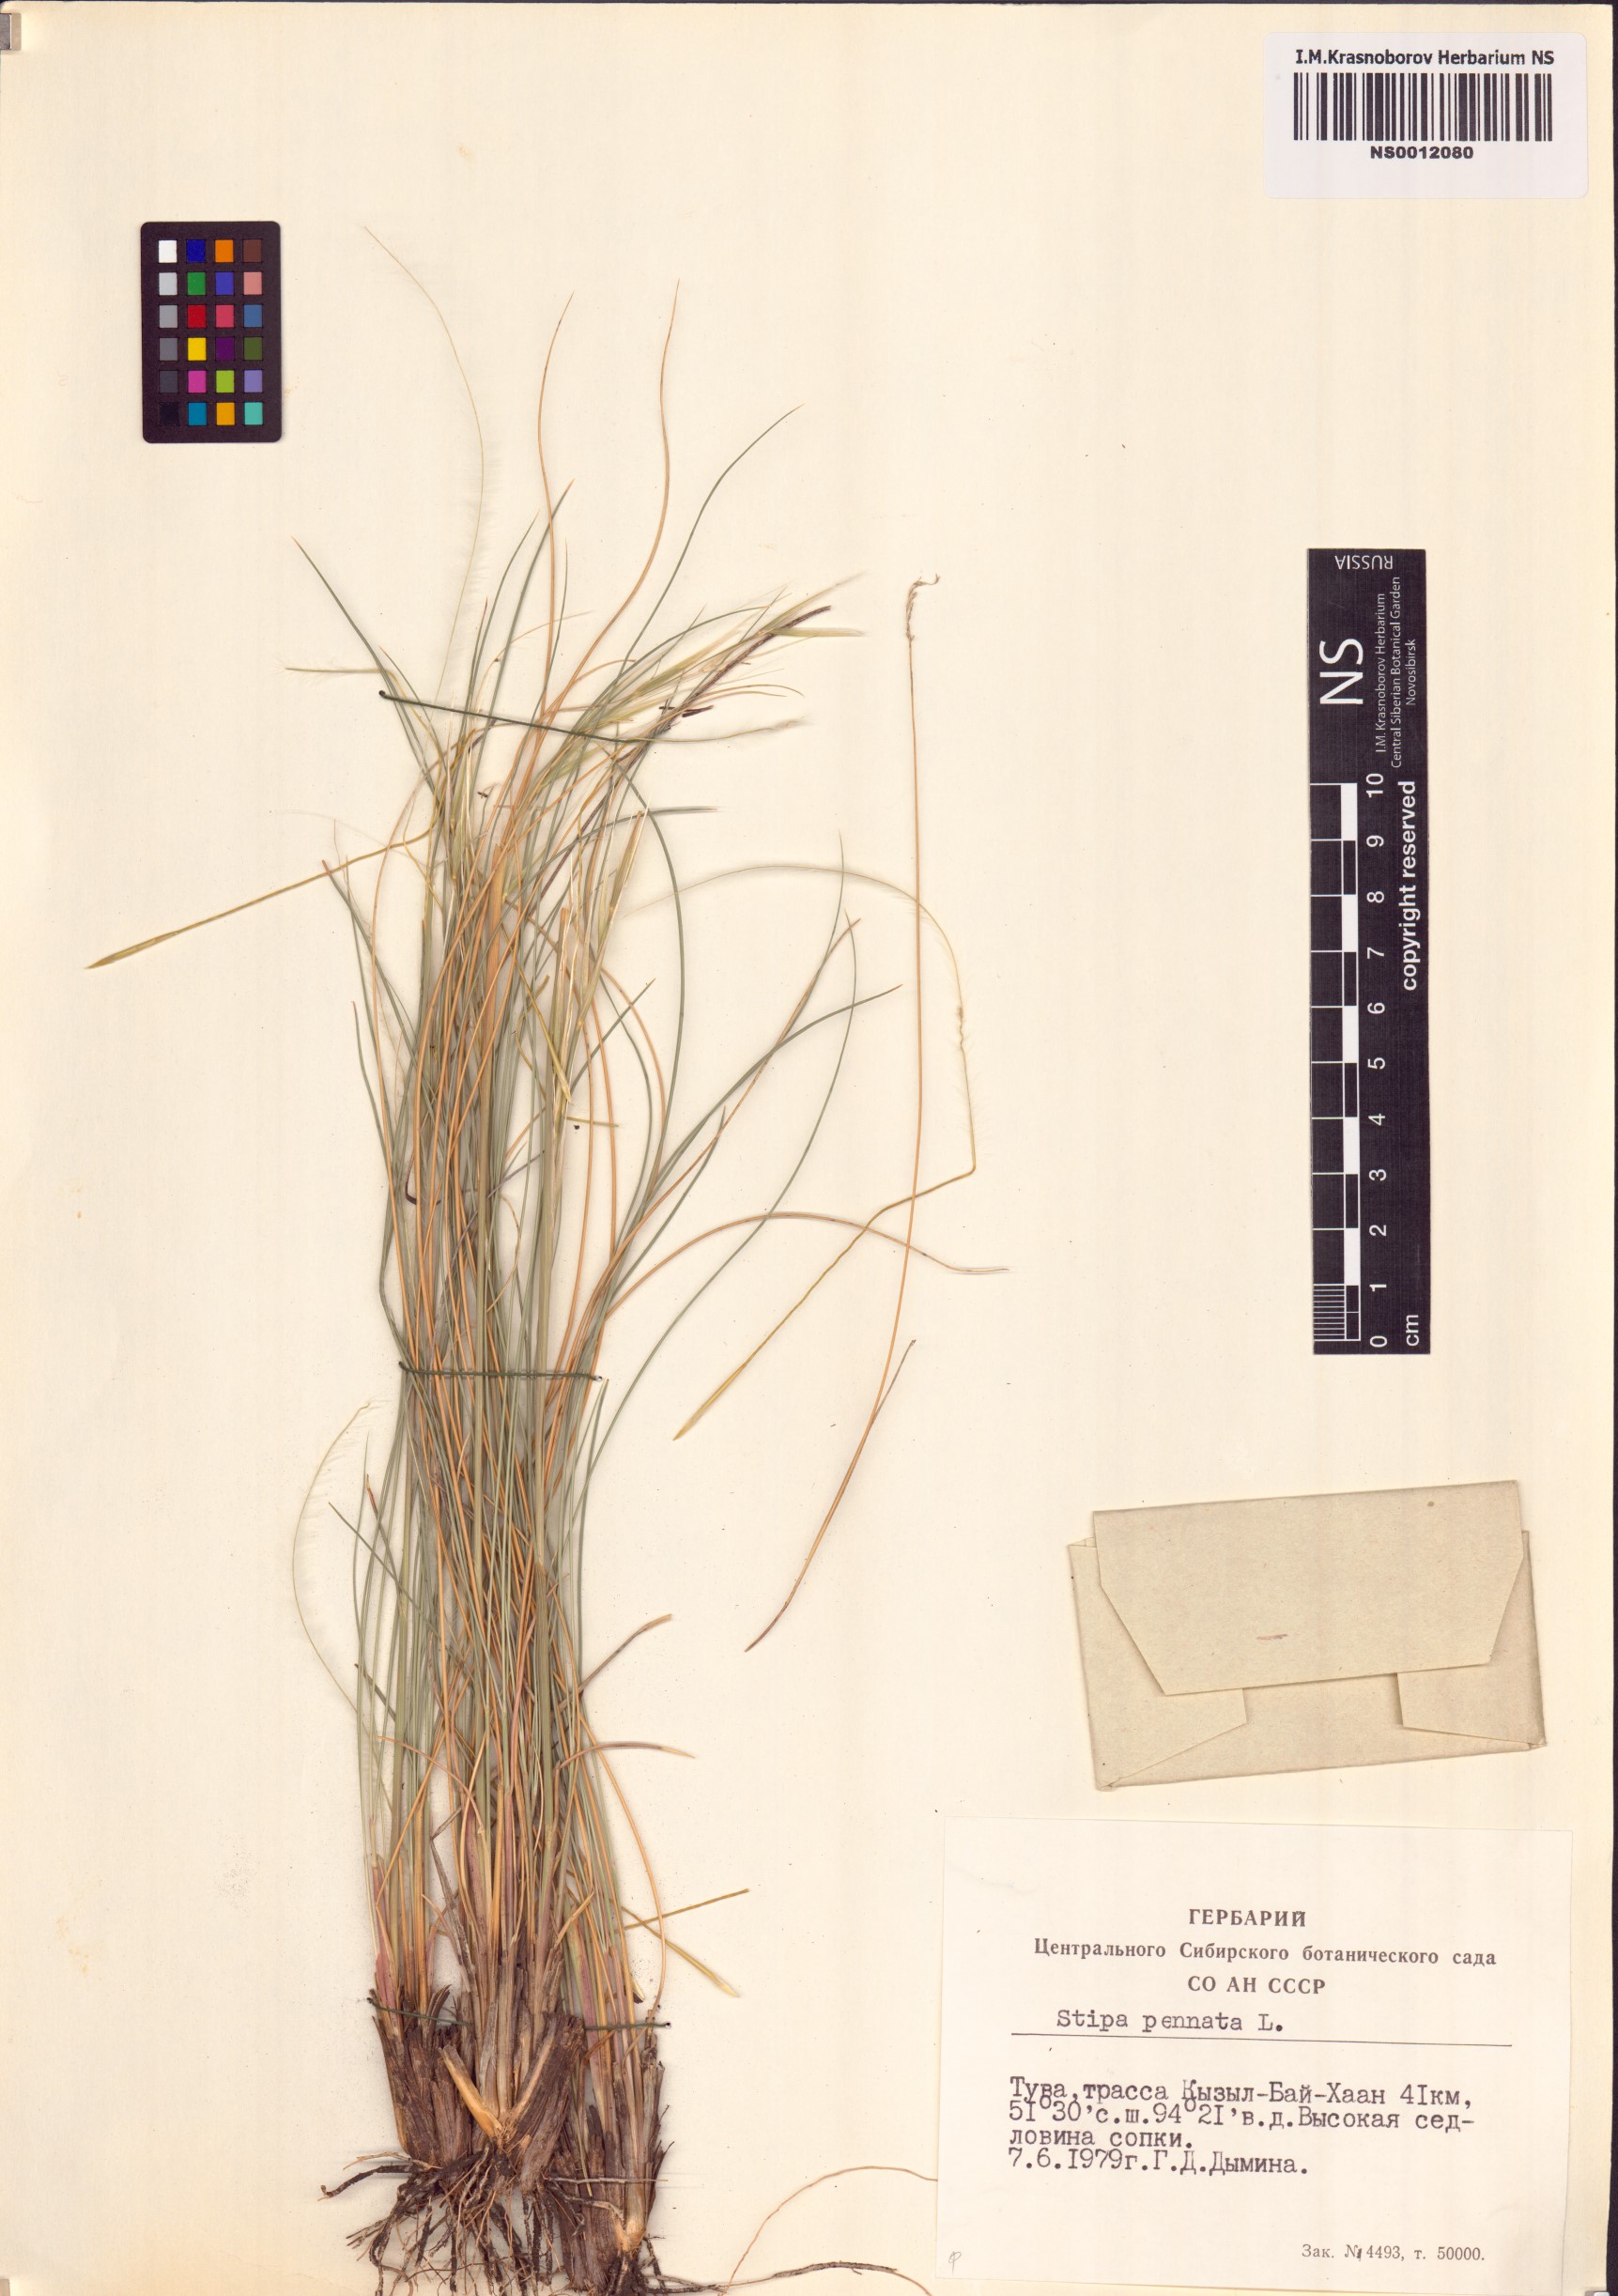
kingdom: Plantae
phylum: Tracheophyta
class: Liliopsida
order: Poales
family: Poaceae
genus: Stipa
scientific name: Stipa pennata
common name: European feather grass
